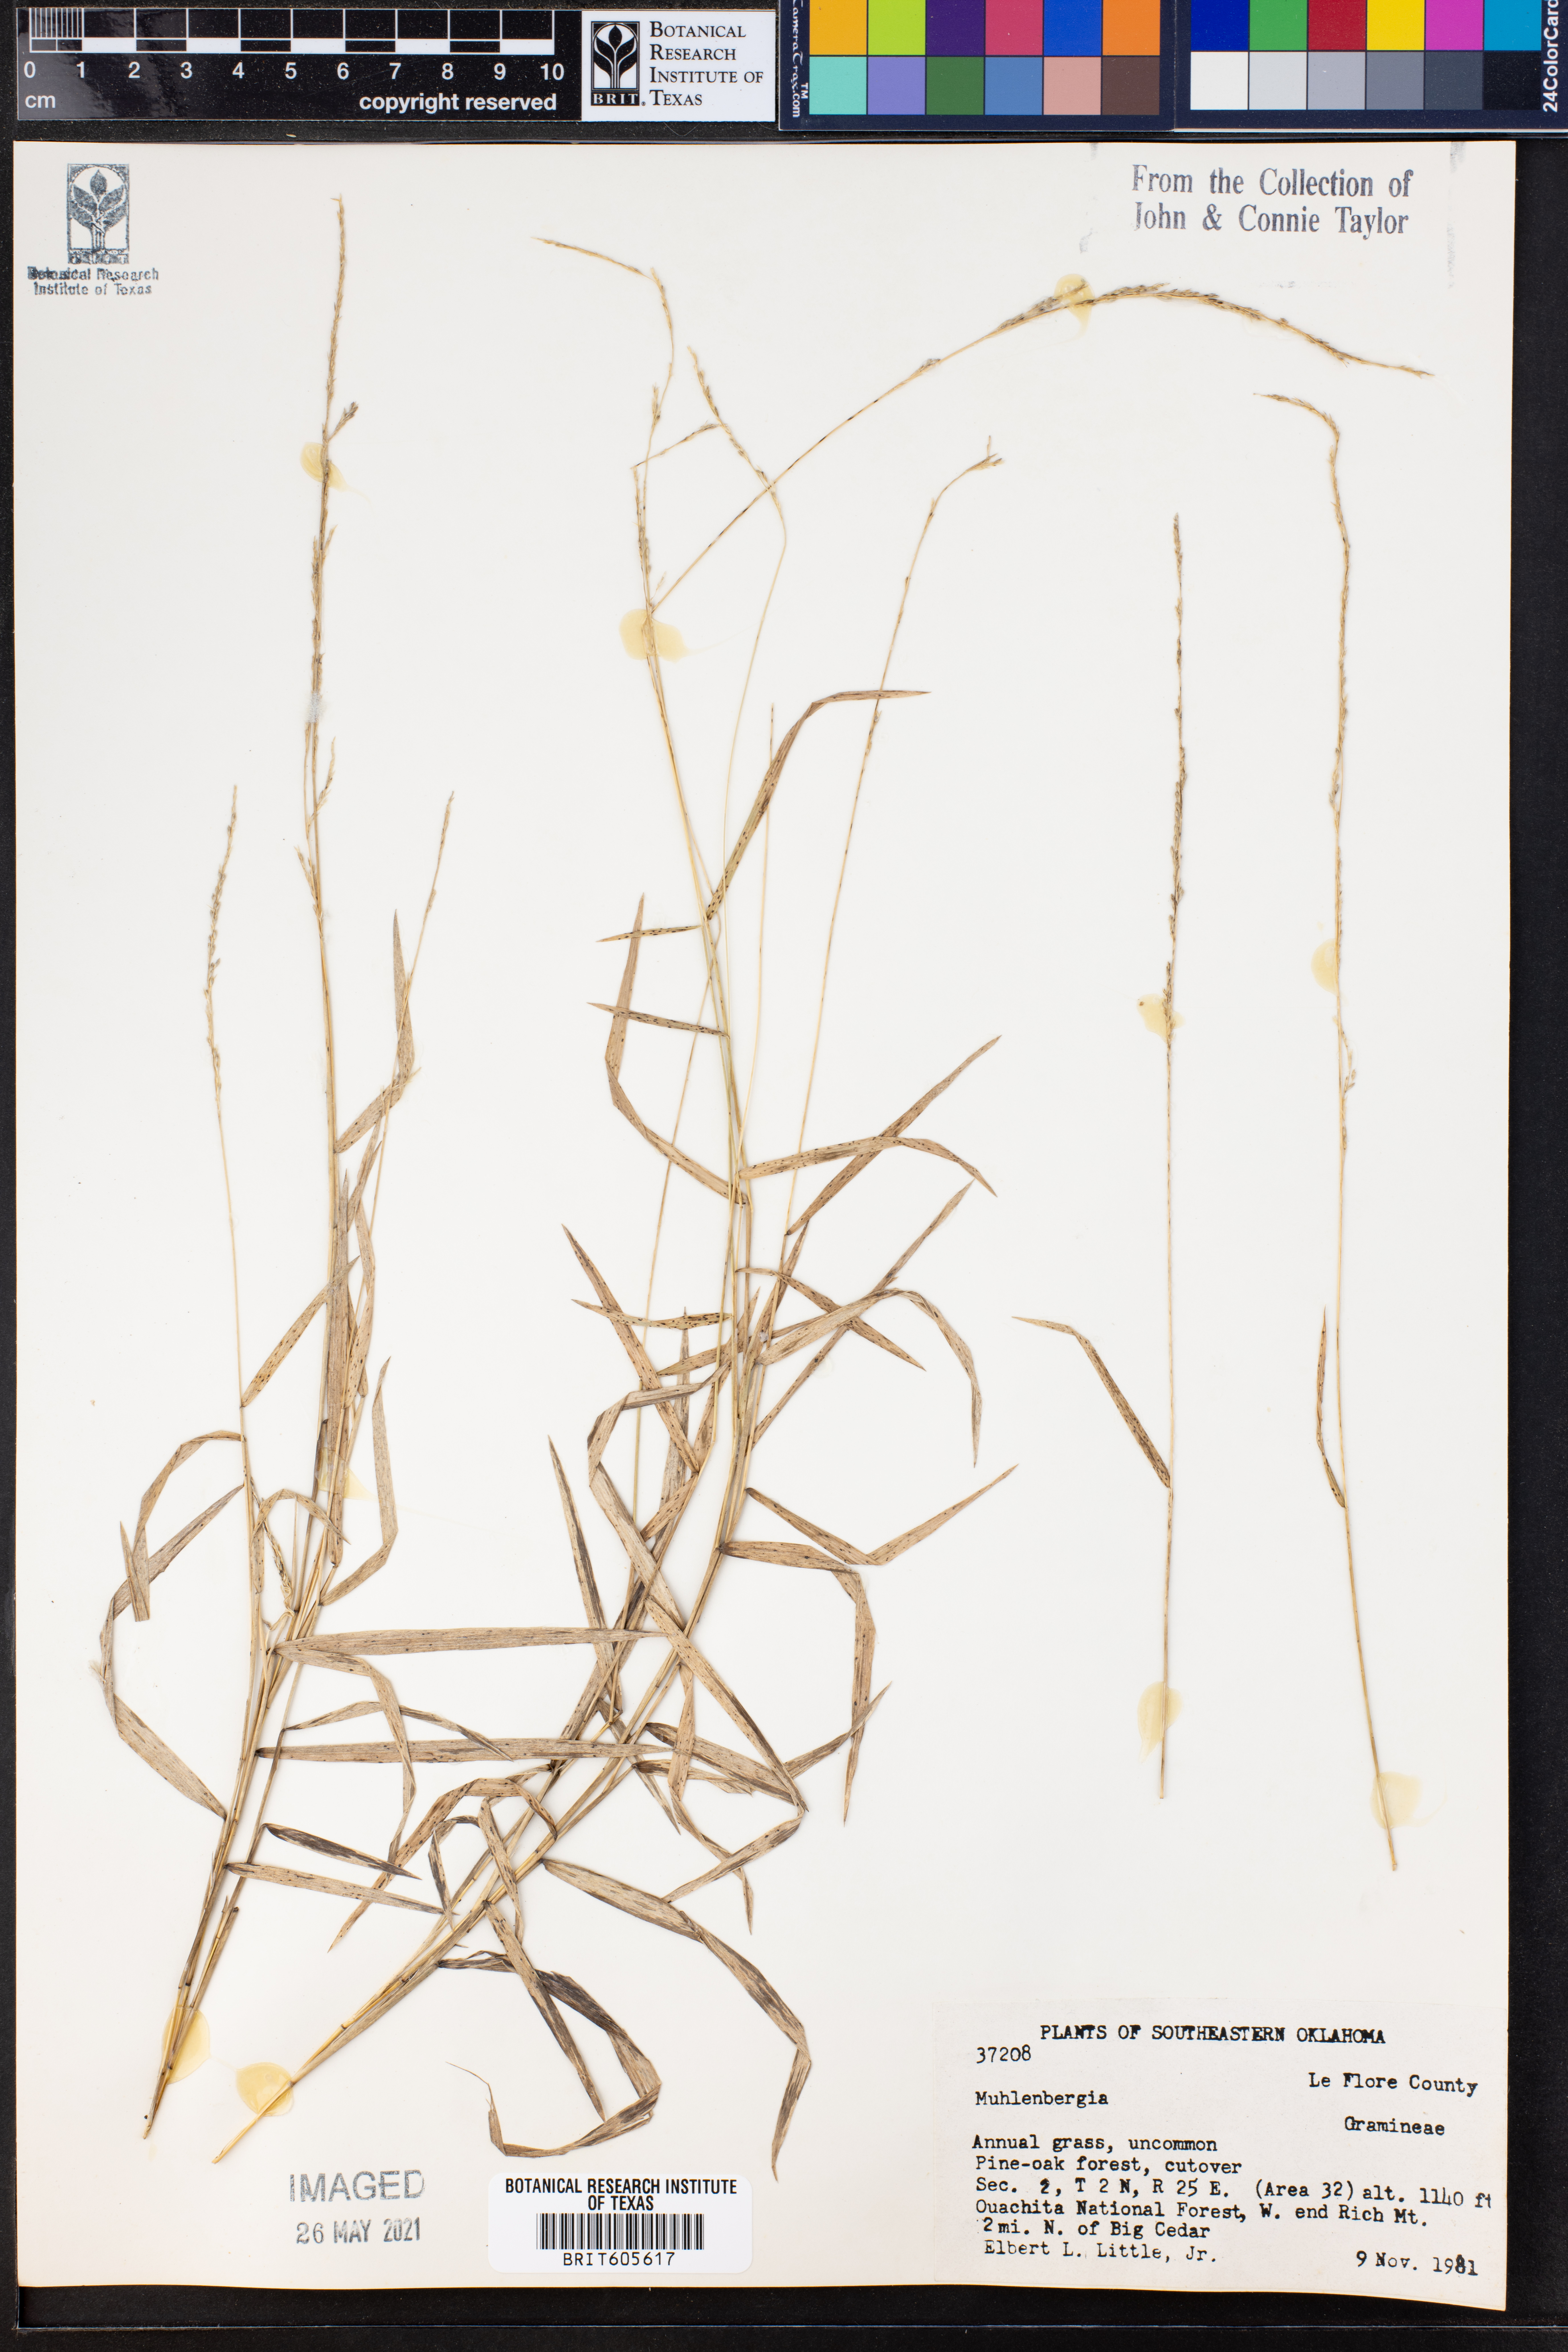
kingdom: Plantae
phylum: Tracheophyta
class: Liliopsida
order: Poales
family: Poaceae
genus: Muhlenbergia
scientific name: Muhlenbergia
